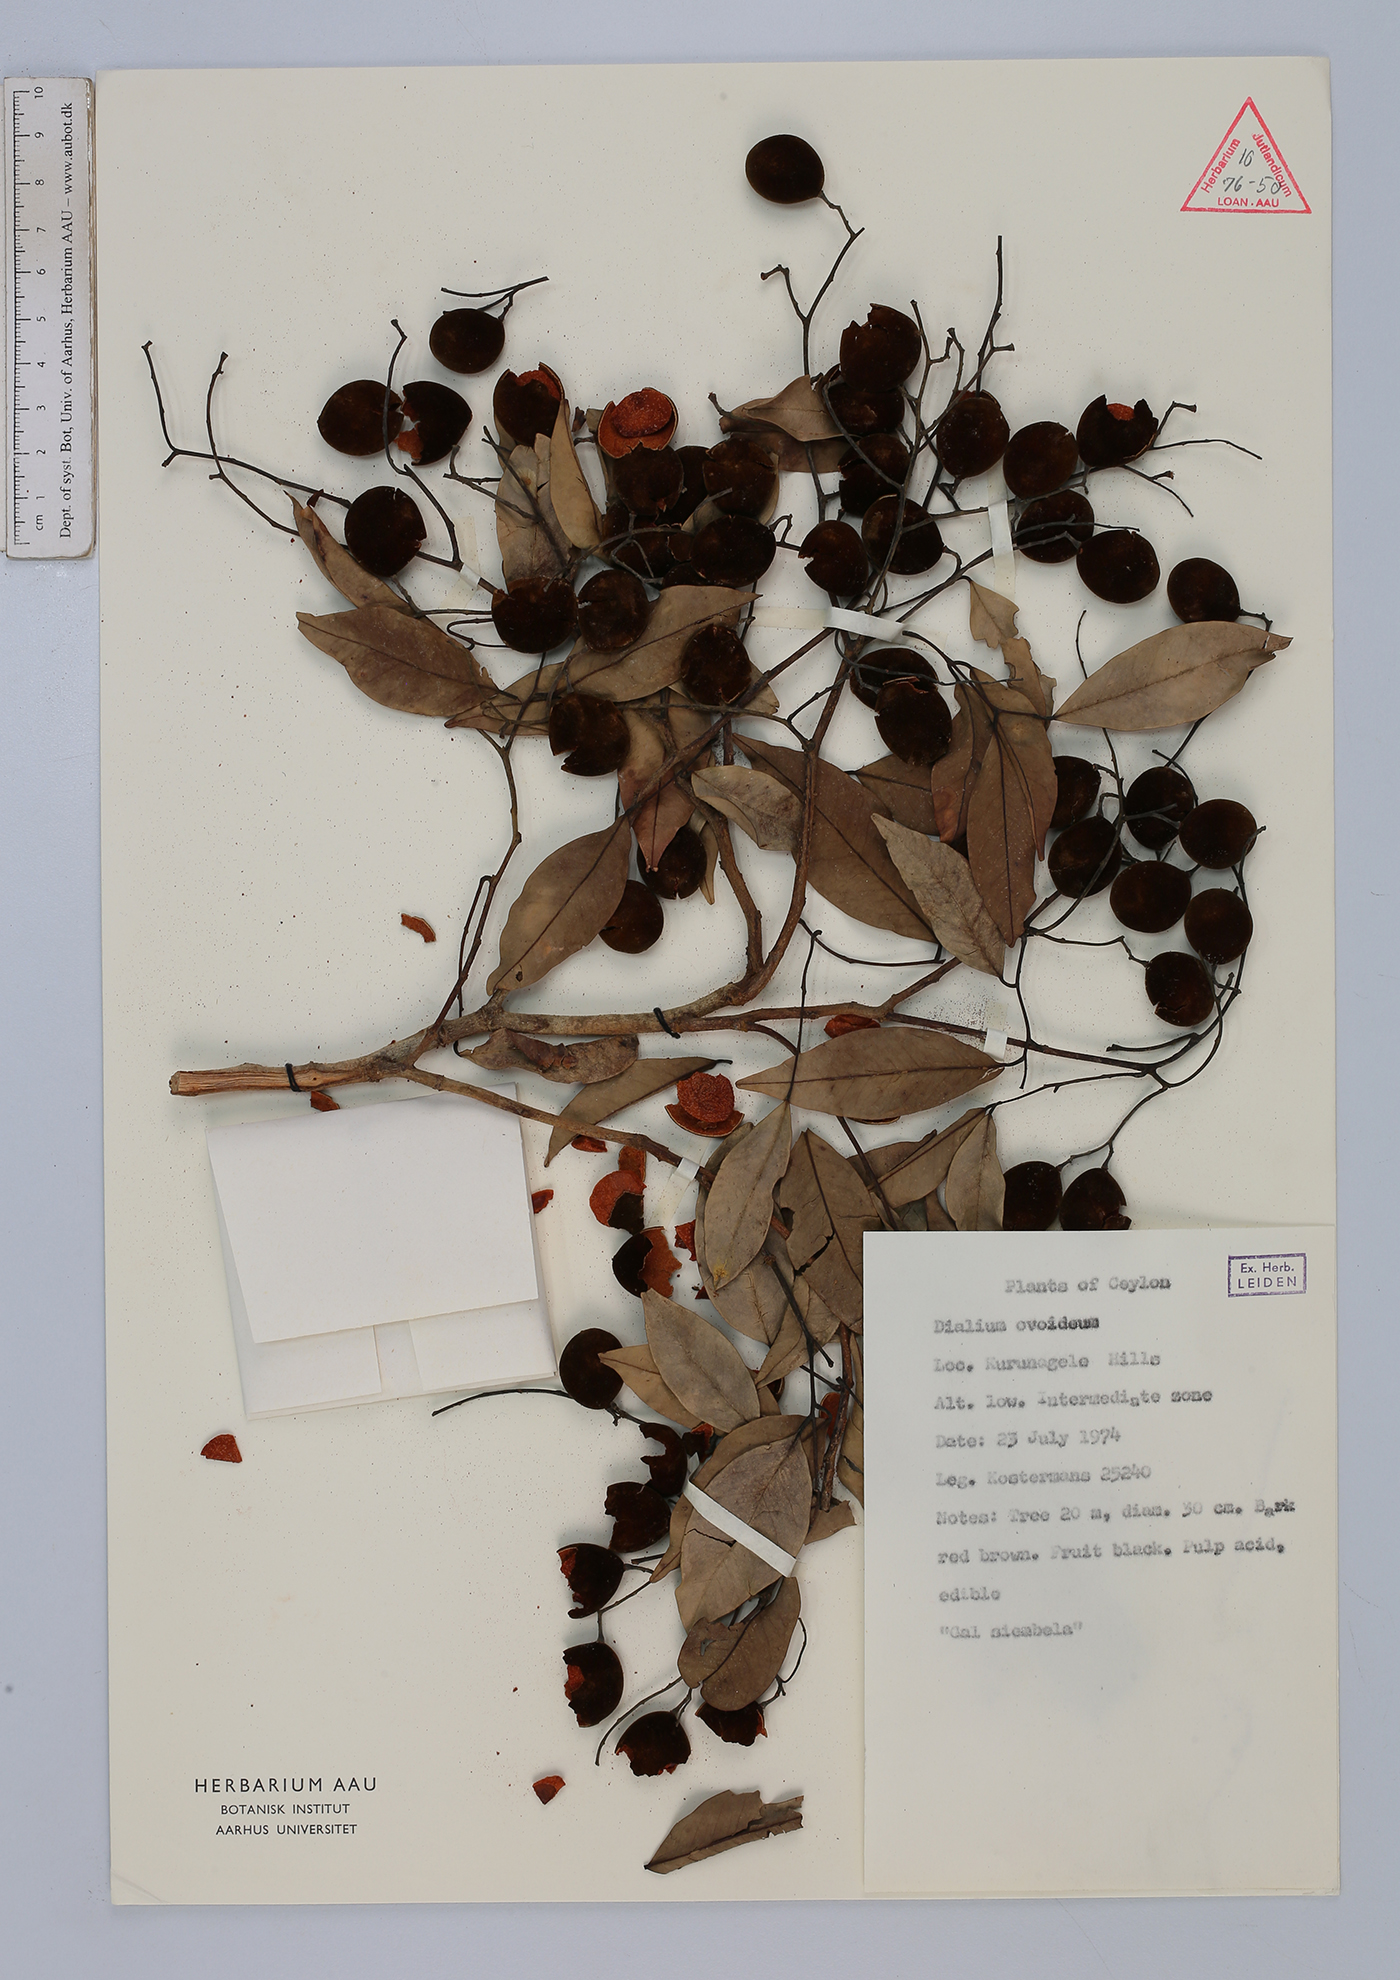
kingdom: Plantae
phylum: Tracheophyta
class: Magnoliopsida
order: Fabales
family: Fabaceae
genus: Dialium
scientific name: Dialium ovoideum
